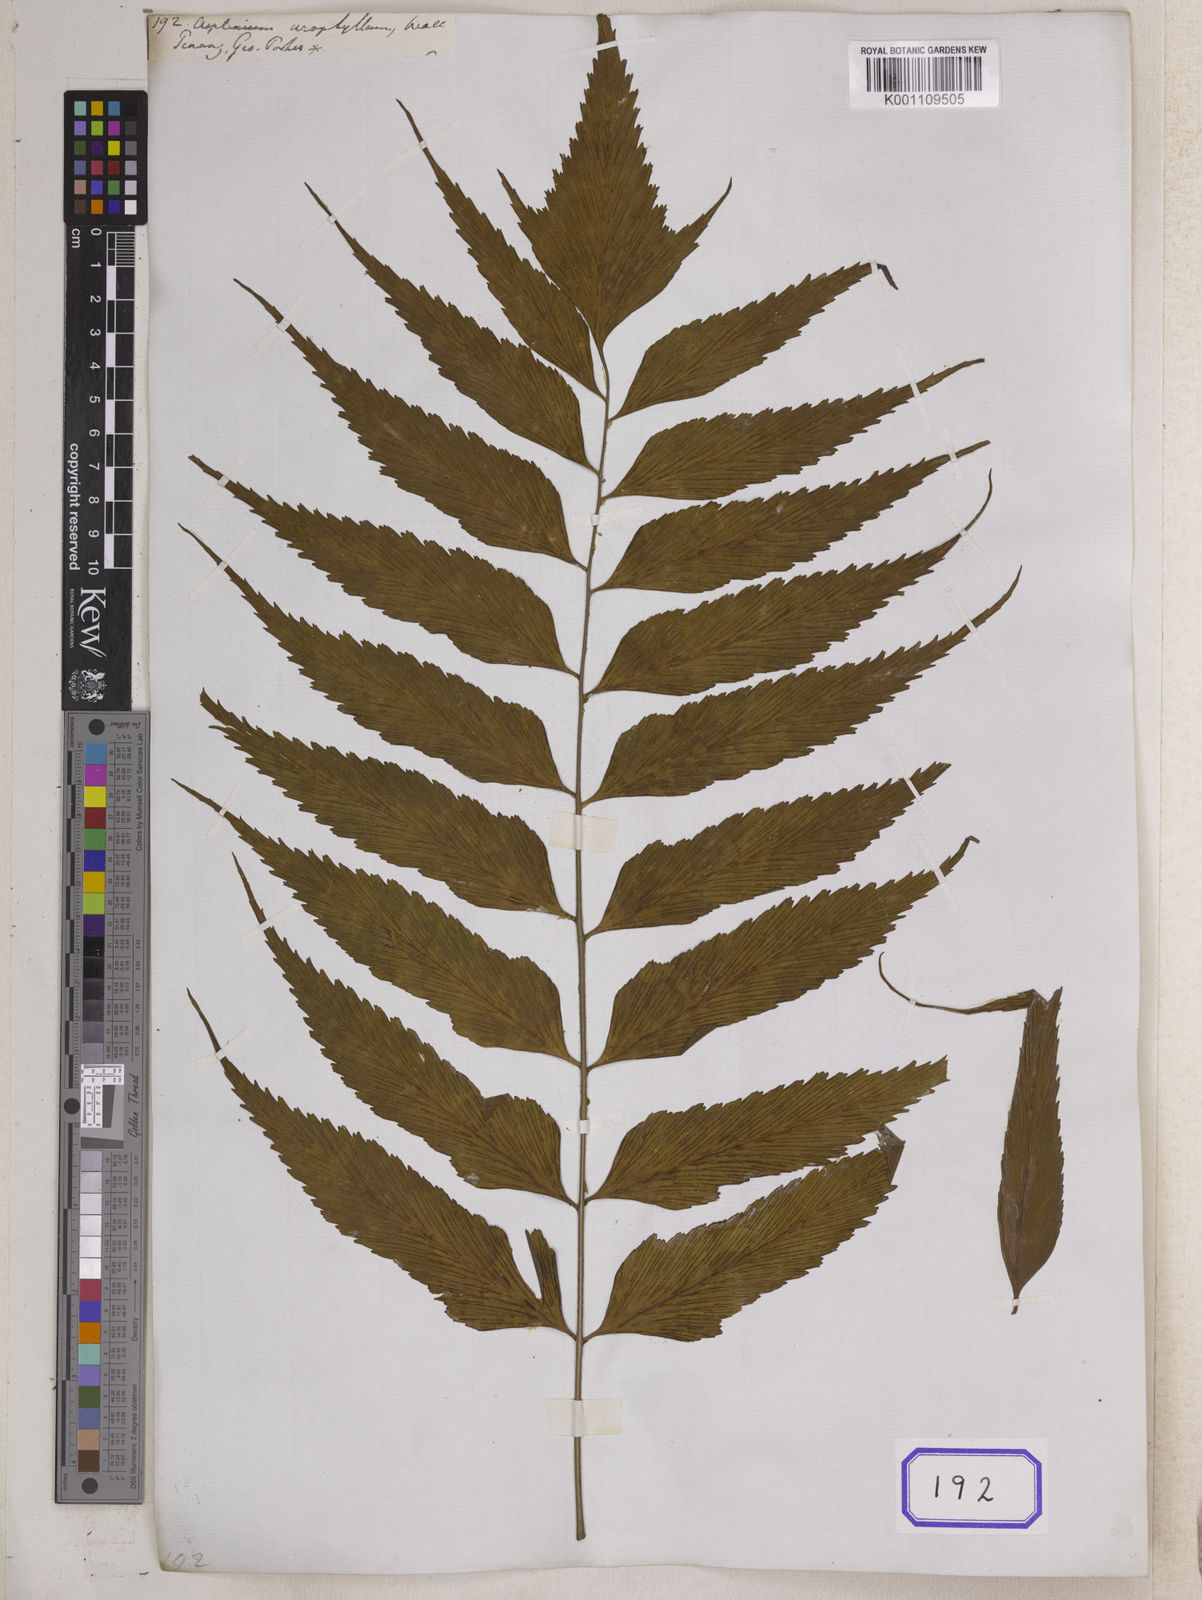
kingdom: Plantae
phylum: Tracheophyta
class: Polypodiopsida
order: Polypodiales
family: Aspleniaceae
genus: Asplenium
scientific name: Asplenium falcatum
